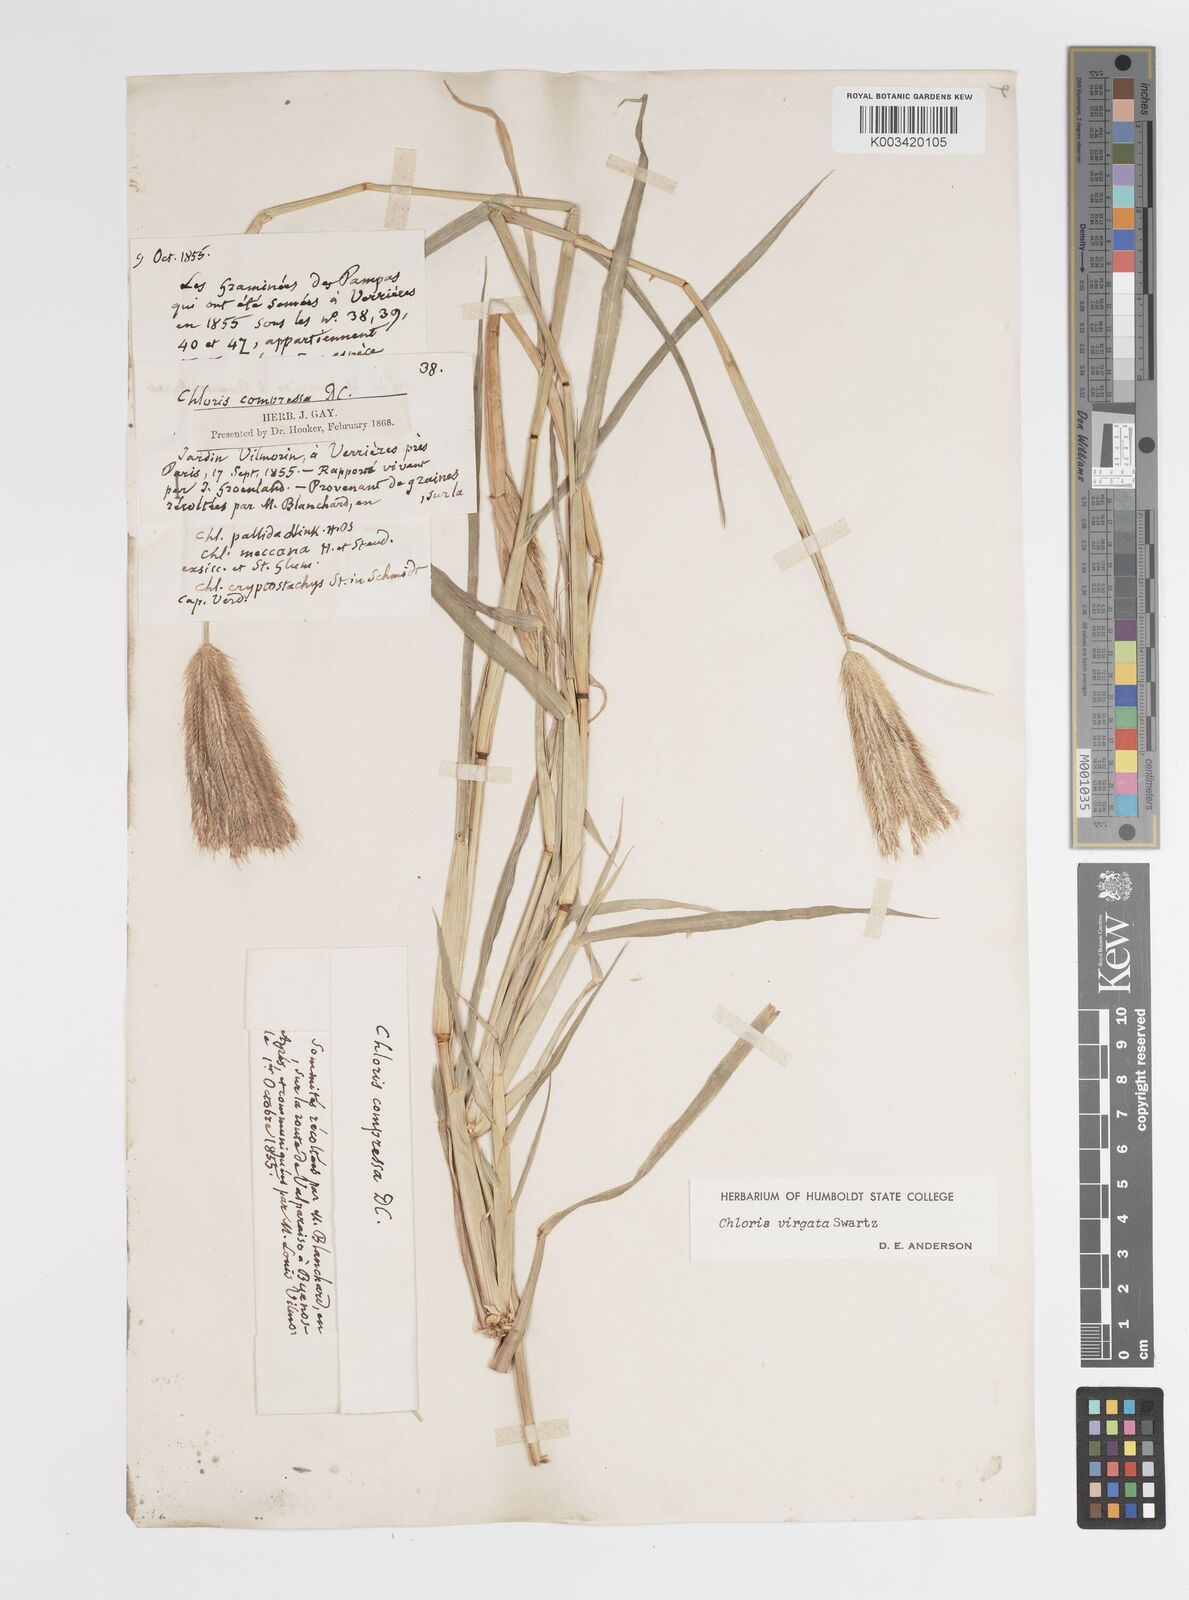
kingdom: Plantae
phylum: Tracheophyta
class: Liliopsida
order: Poales
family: Poaceae
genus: Chloris
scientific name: Chloris virgata
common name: Feathery rhodes-grass
